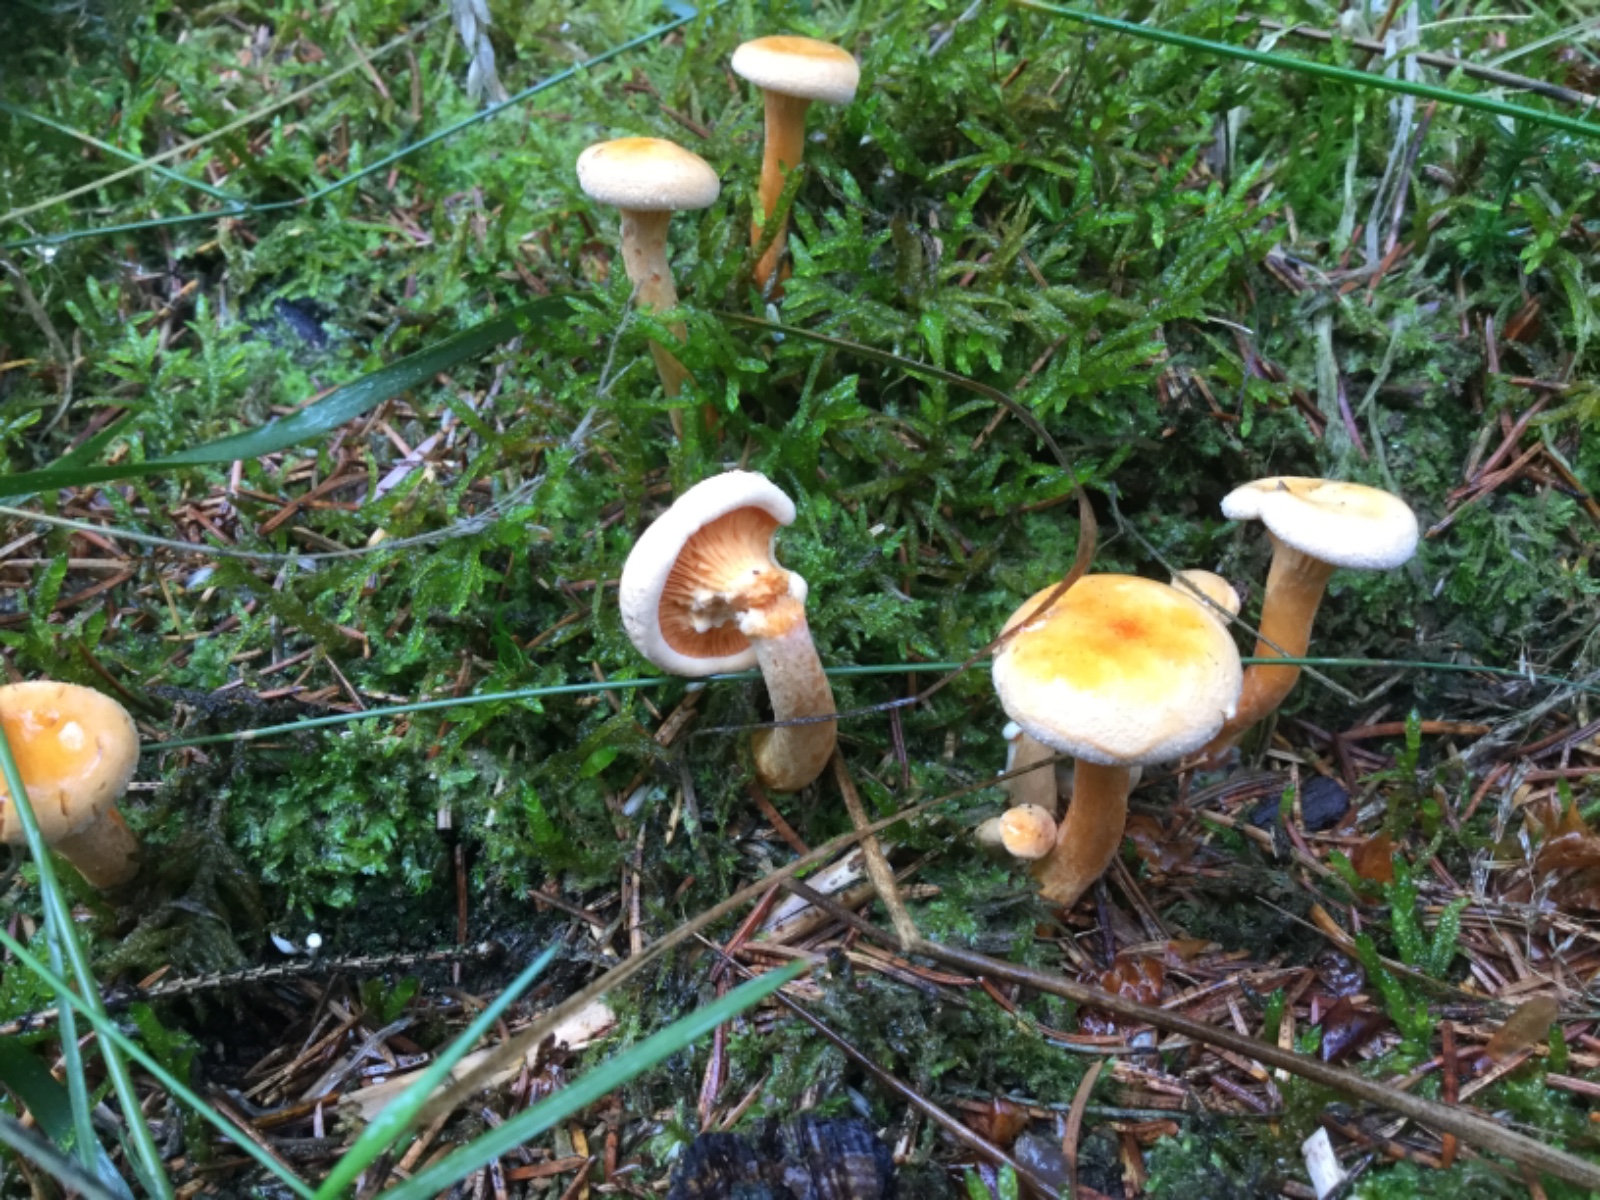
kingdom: Fungi
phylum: Basidiomycota
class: Agaricomycetes
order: Boletales
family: Hygrophoropsidaceae
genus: Hygrophoropsis
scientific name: Hygrophoropsis aurantiaca
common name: almindelig orangekantarel
